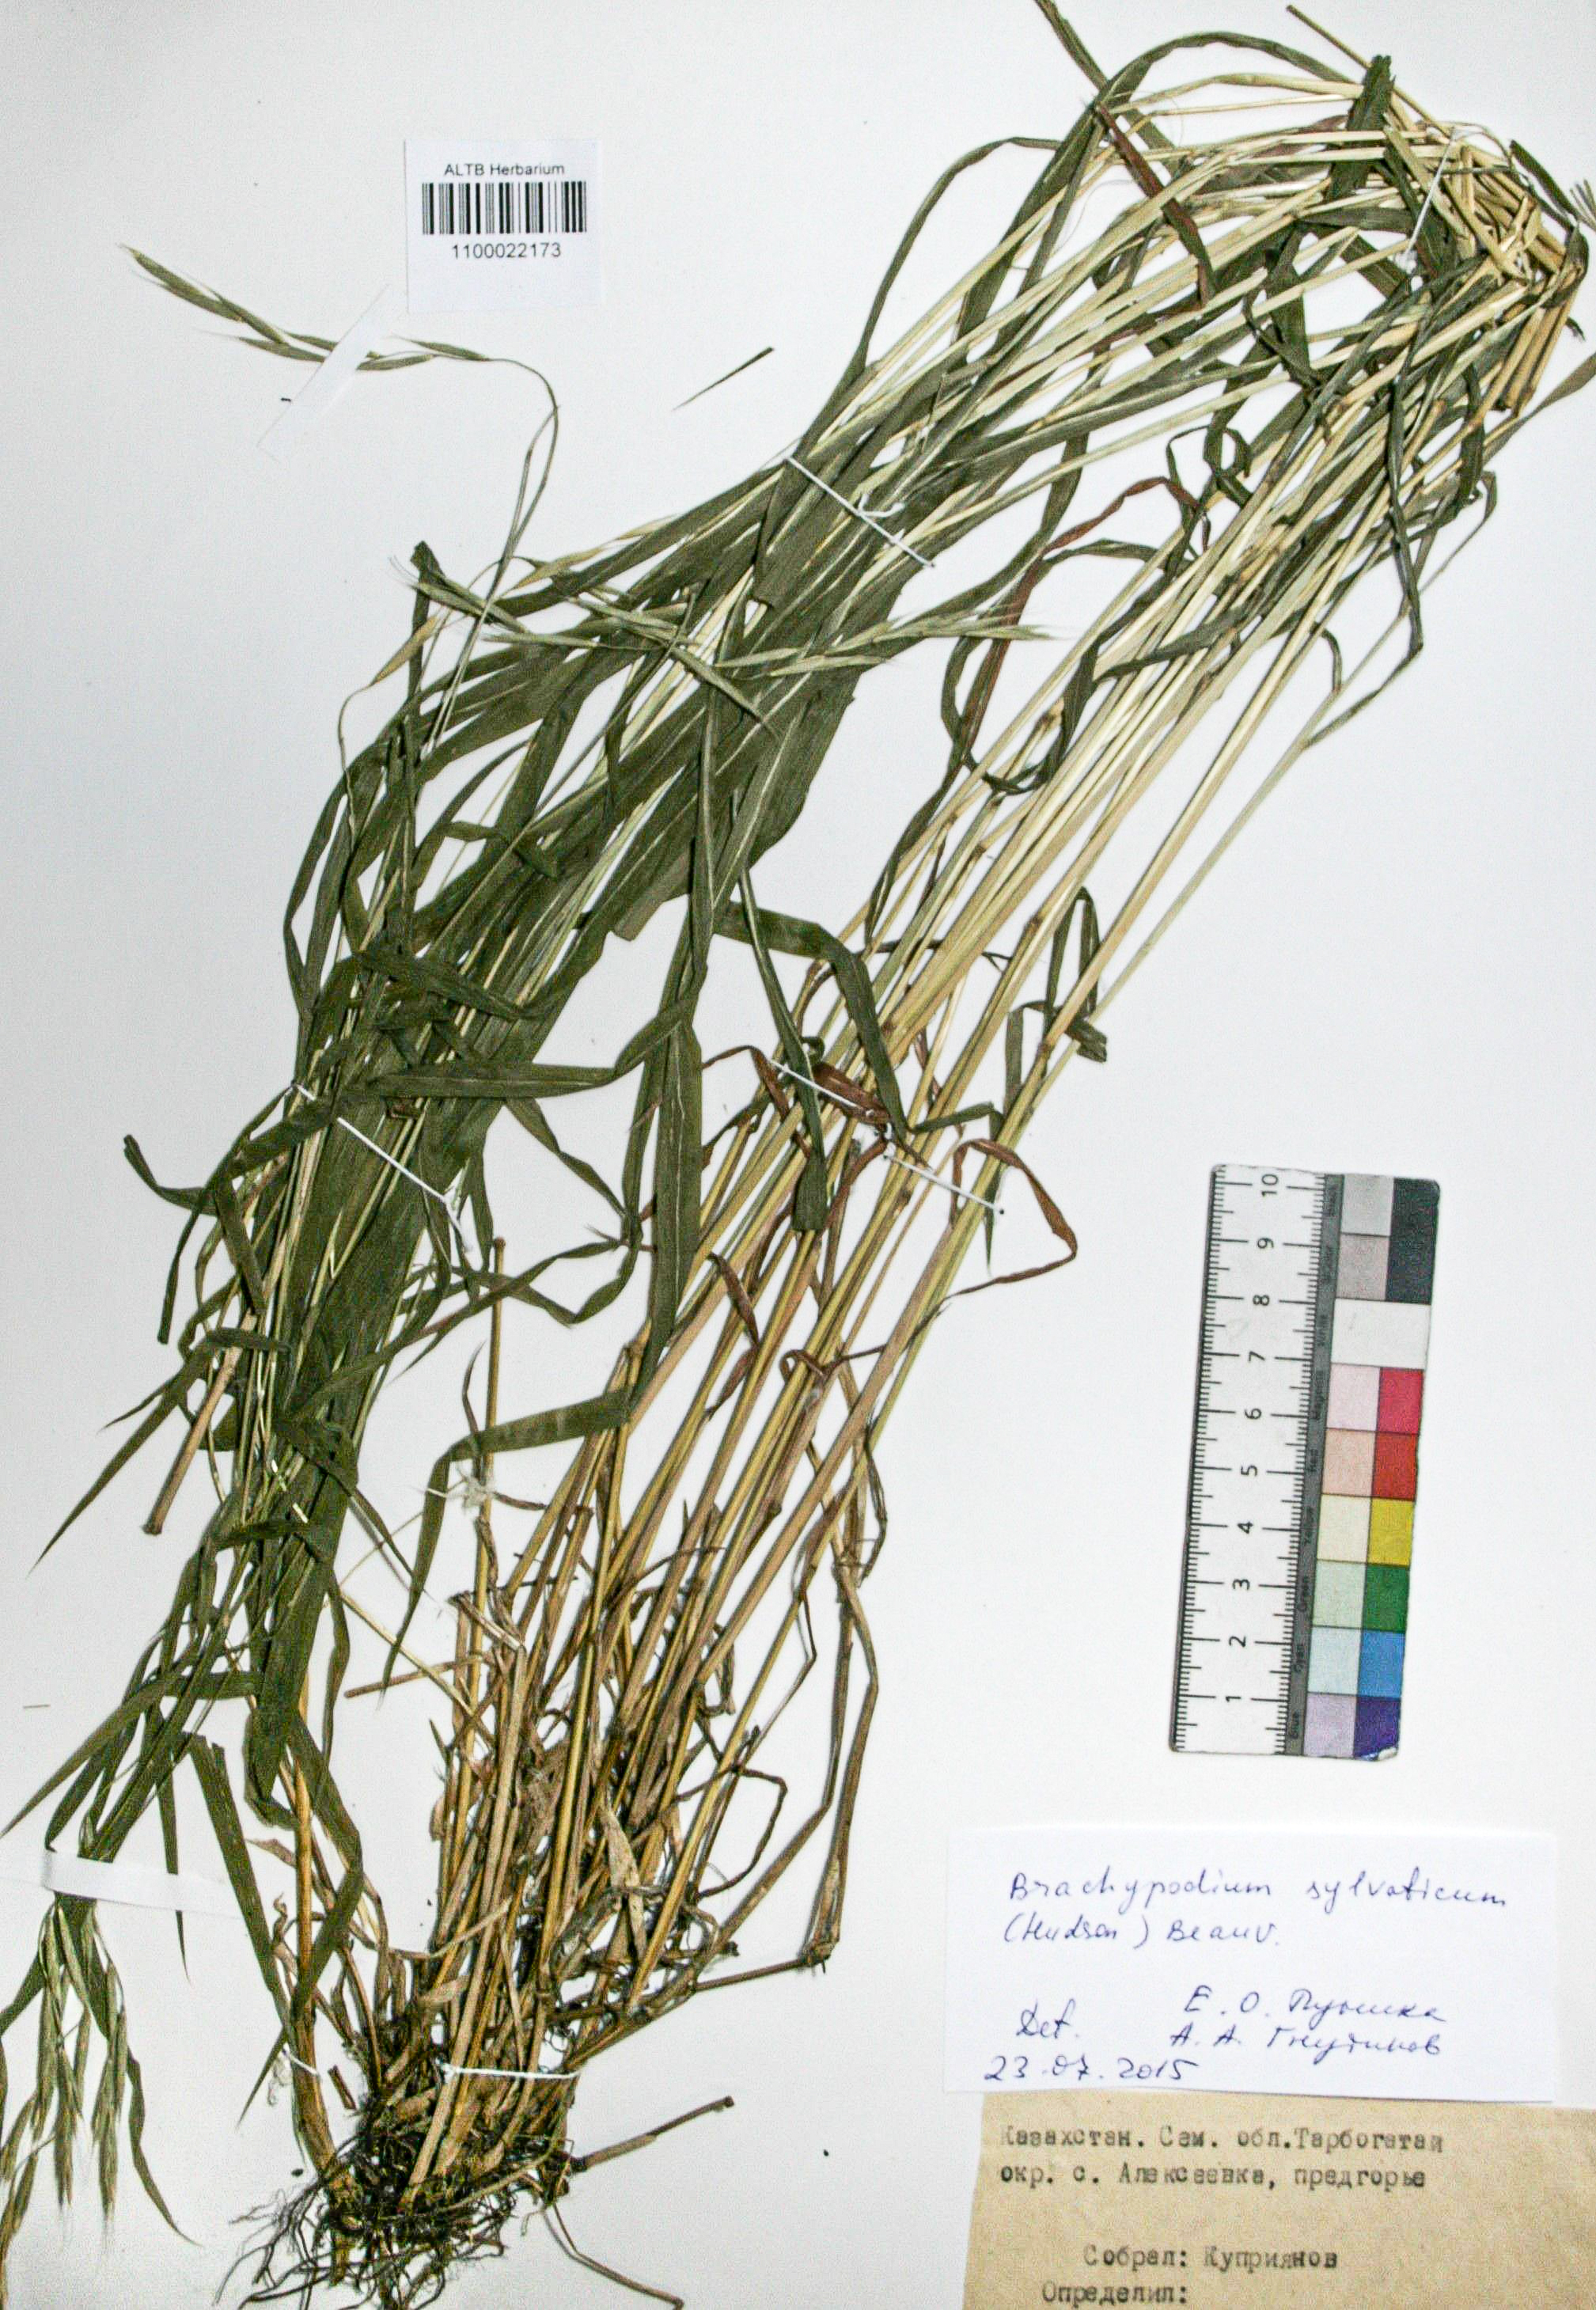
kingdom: Plantae
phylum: Tracheophyta
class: Liliopsida
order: Poales
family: Poaceae
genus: Brachypodium
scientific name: Brachypodium sylvaticum
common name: False-brome
